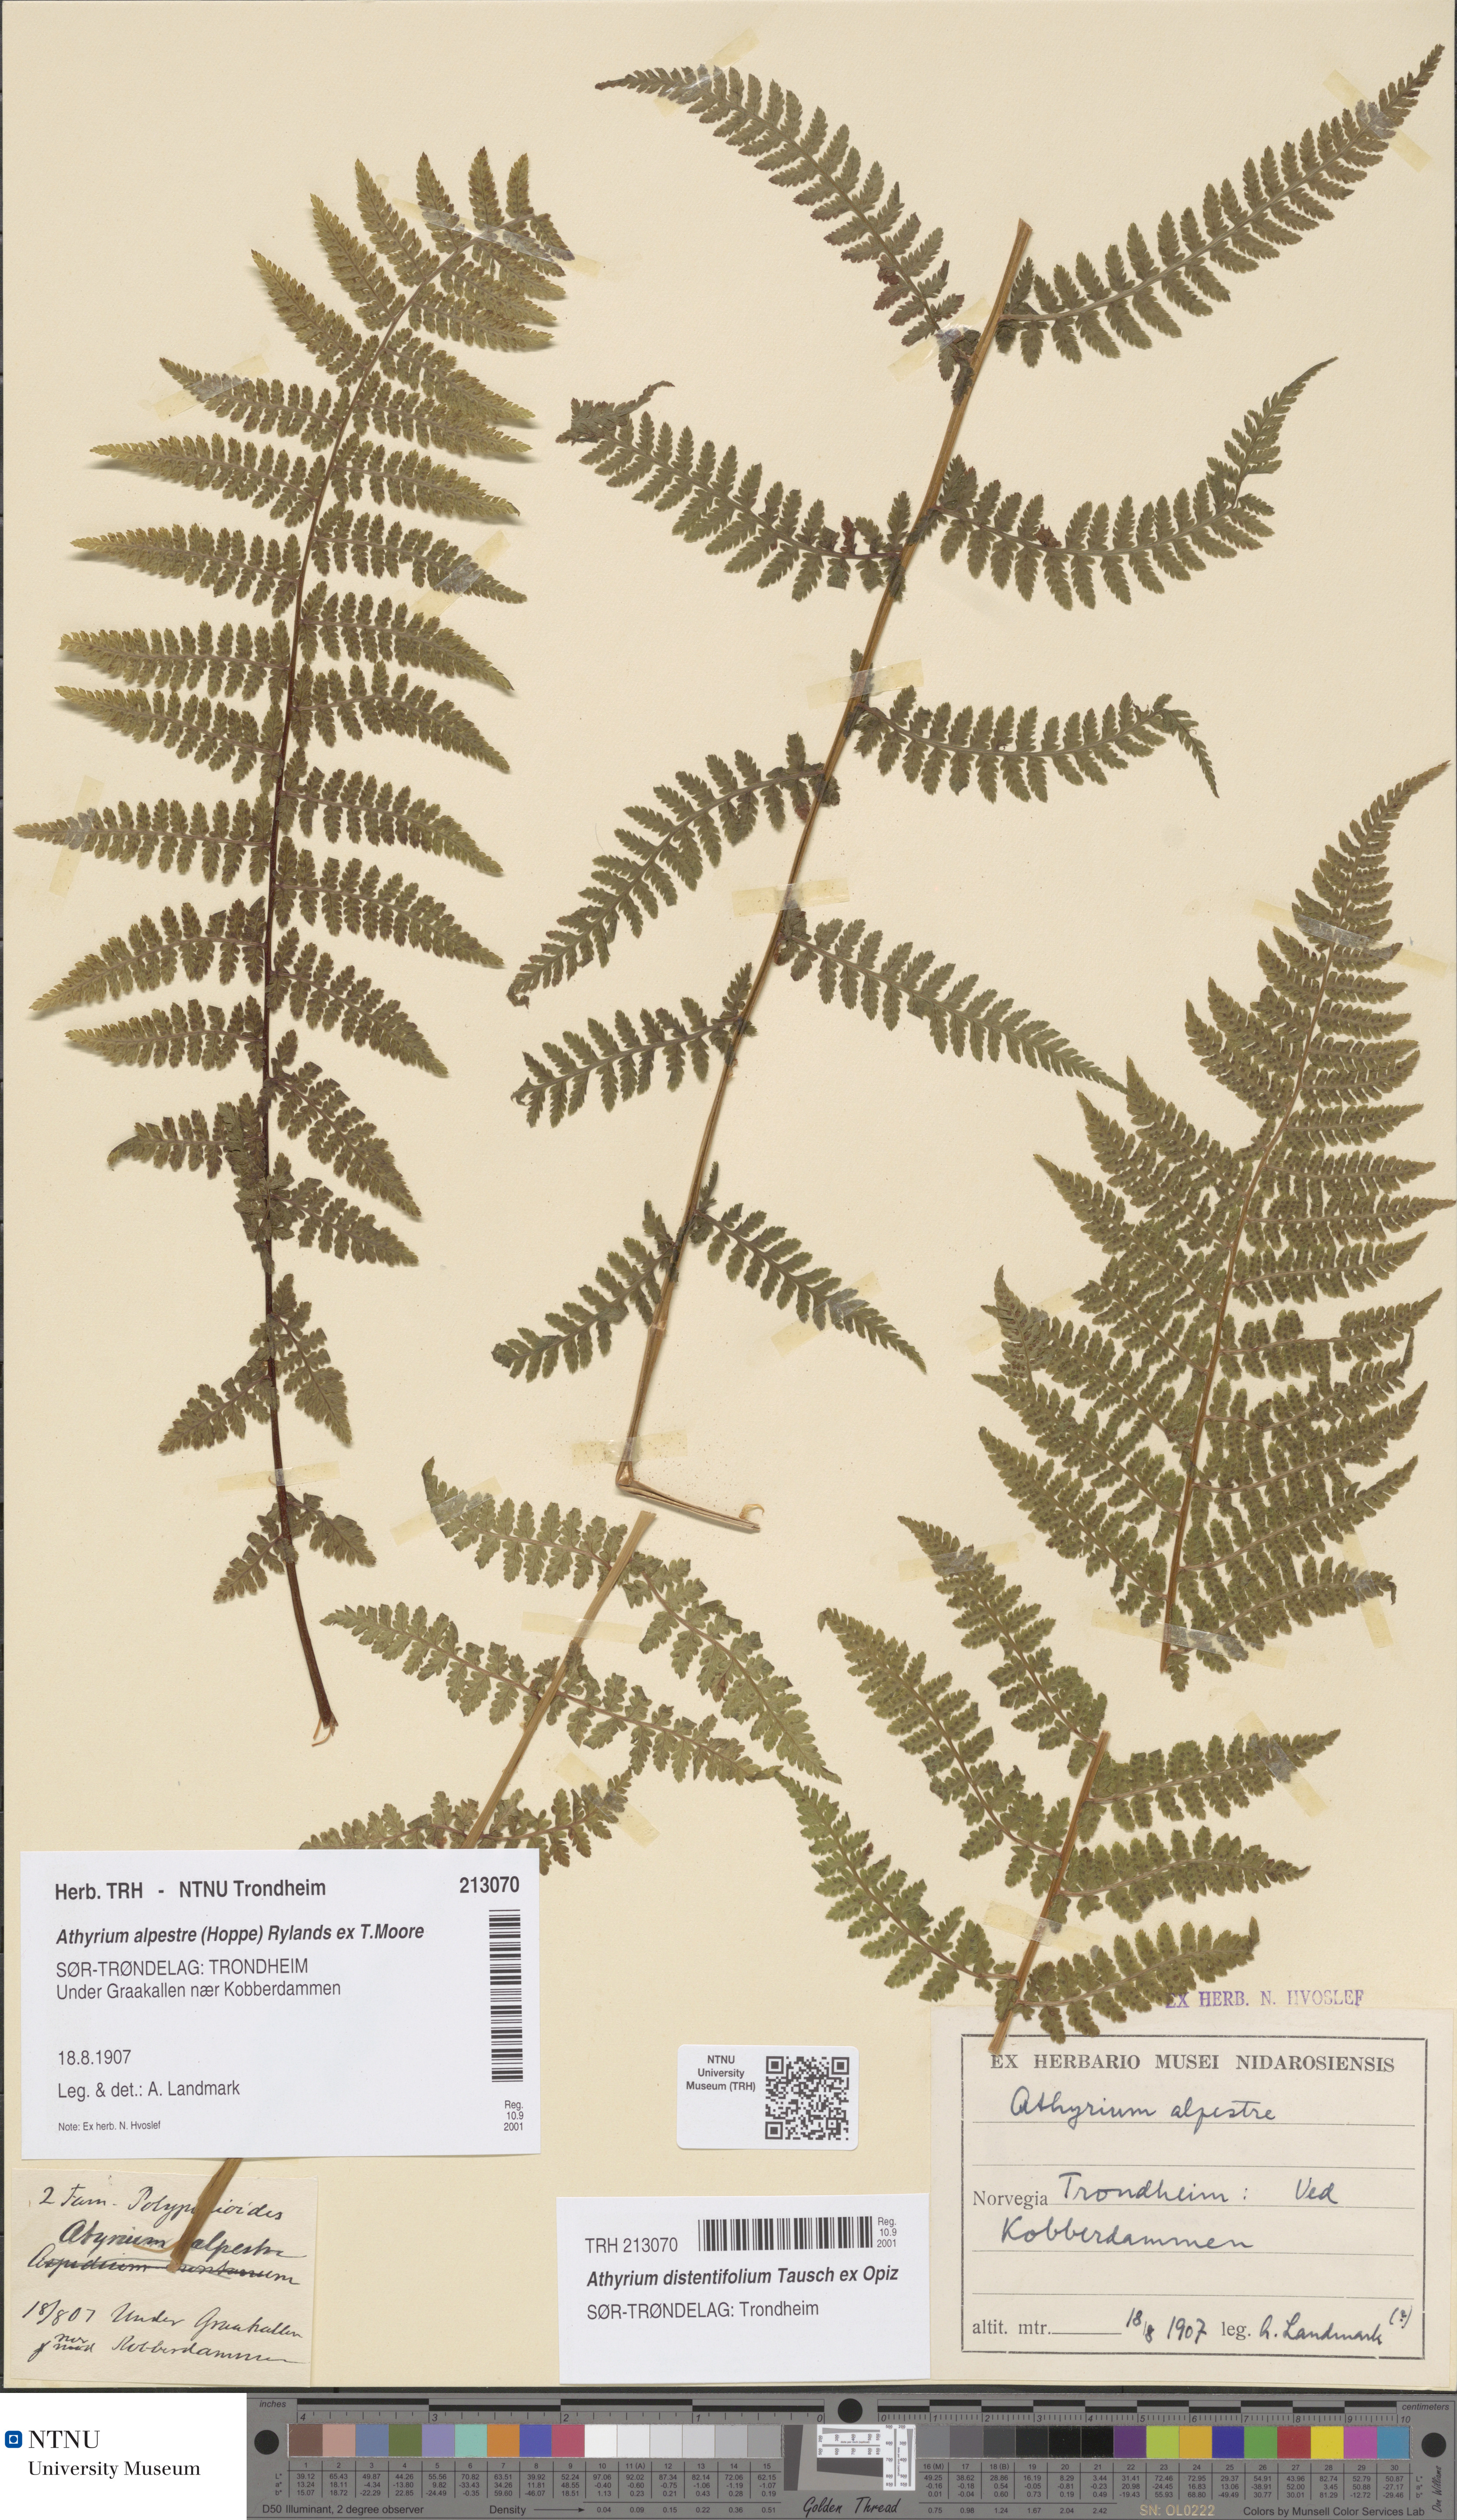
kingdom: Plantae
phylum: Tracheophyta
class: Polypodiopsida
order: Polypodiales
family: Athyriaceae
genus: Pseudathyrium
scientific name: Pseudathyrium alpestre
